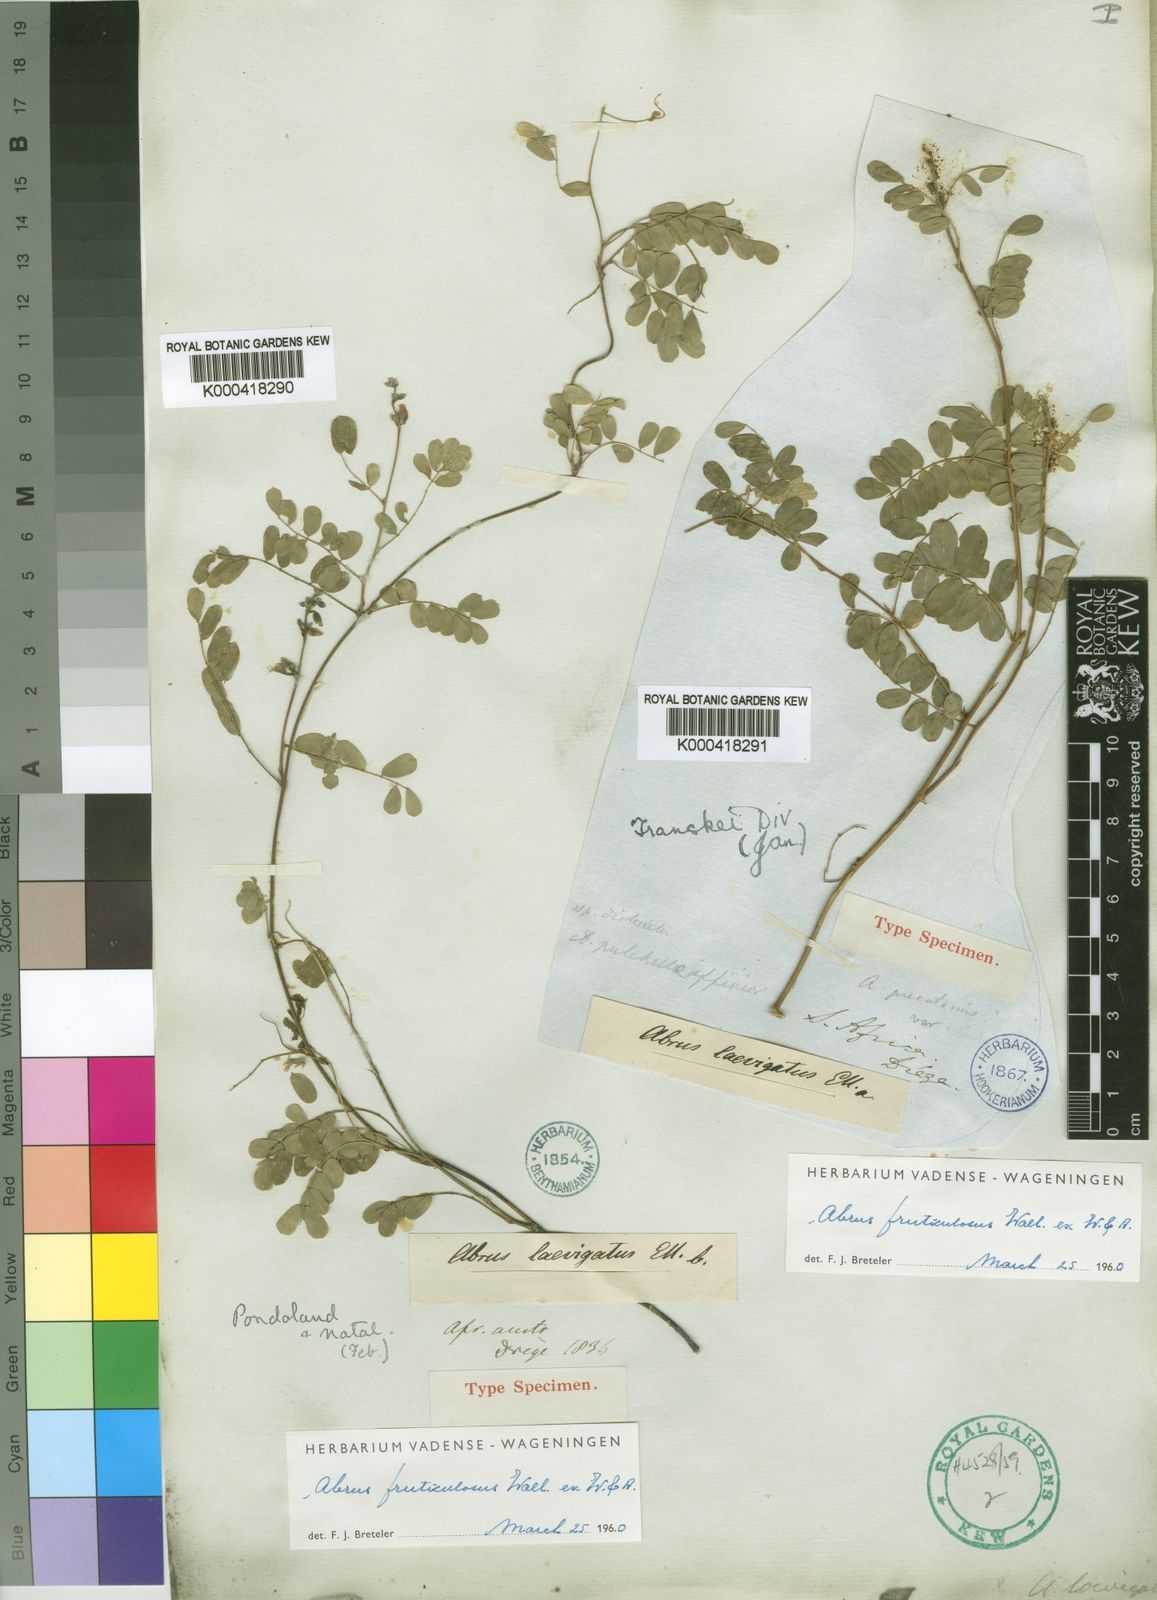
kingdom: Plantae
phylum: Tracheophyta
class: Magnoliopsida
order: Fabales
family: Fabaceae
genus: Abrus
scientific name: Abrus laevigatus
